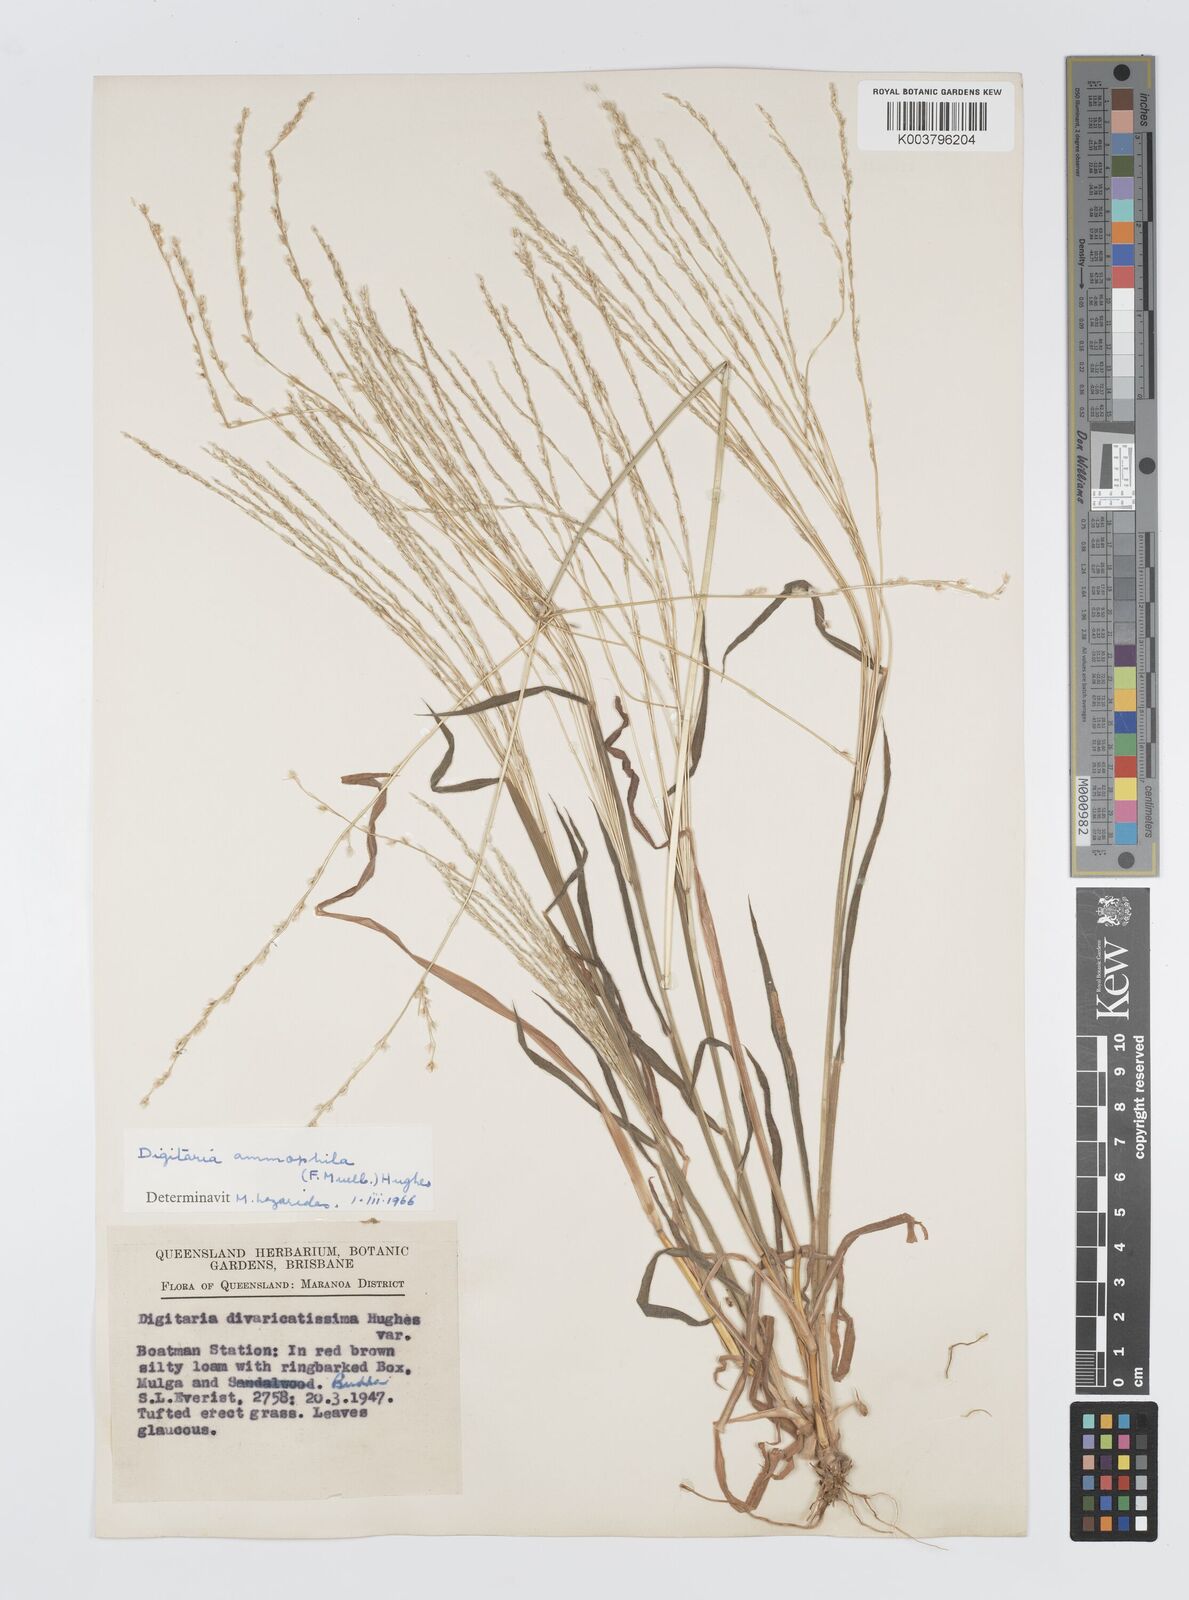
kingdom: Plantae
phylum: Tracheophyta
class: Liliopsida
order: Poales
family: Poaceae
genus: Digitaria
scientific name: Digitaria ammophila
